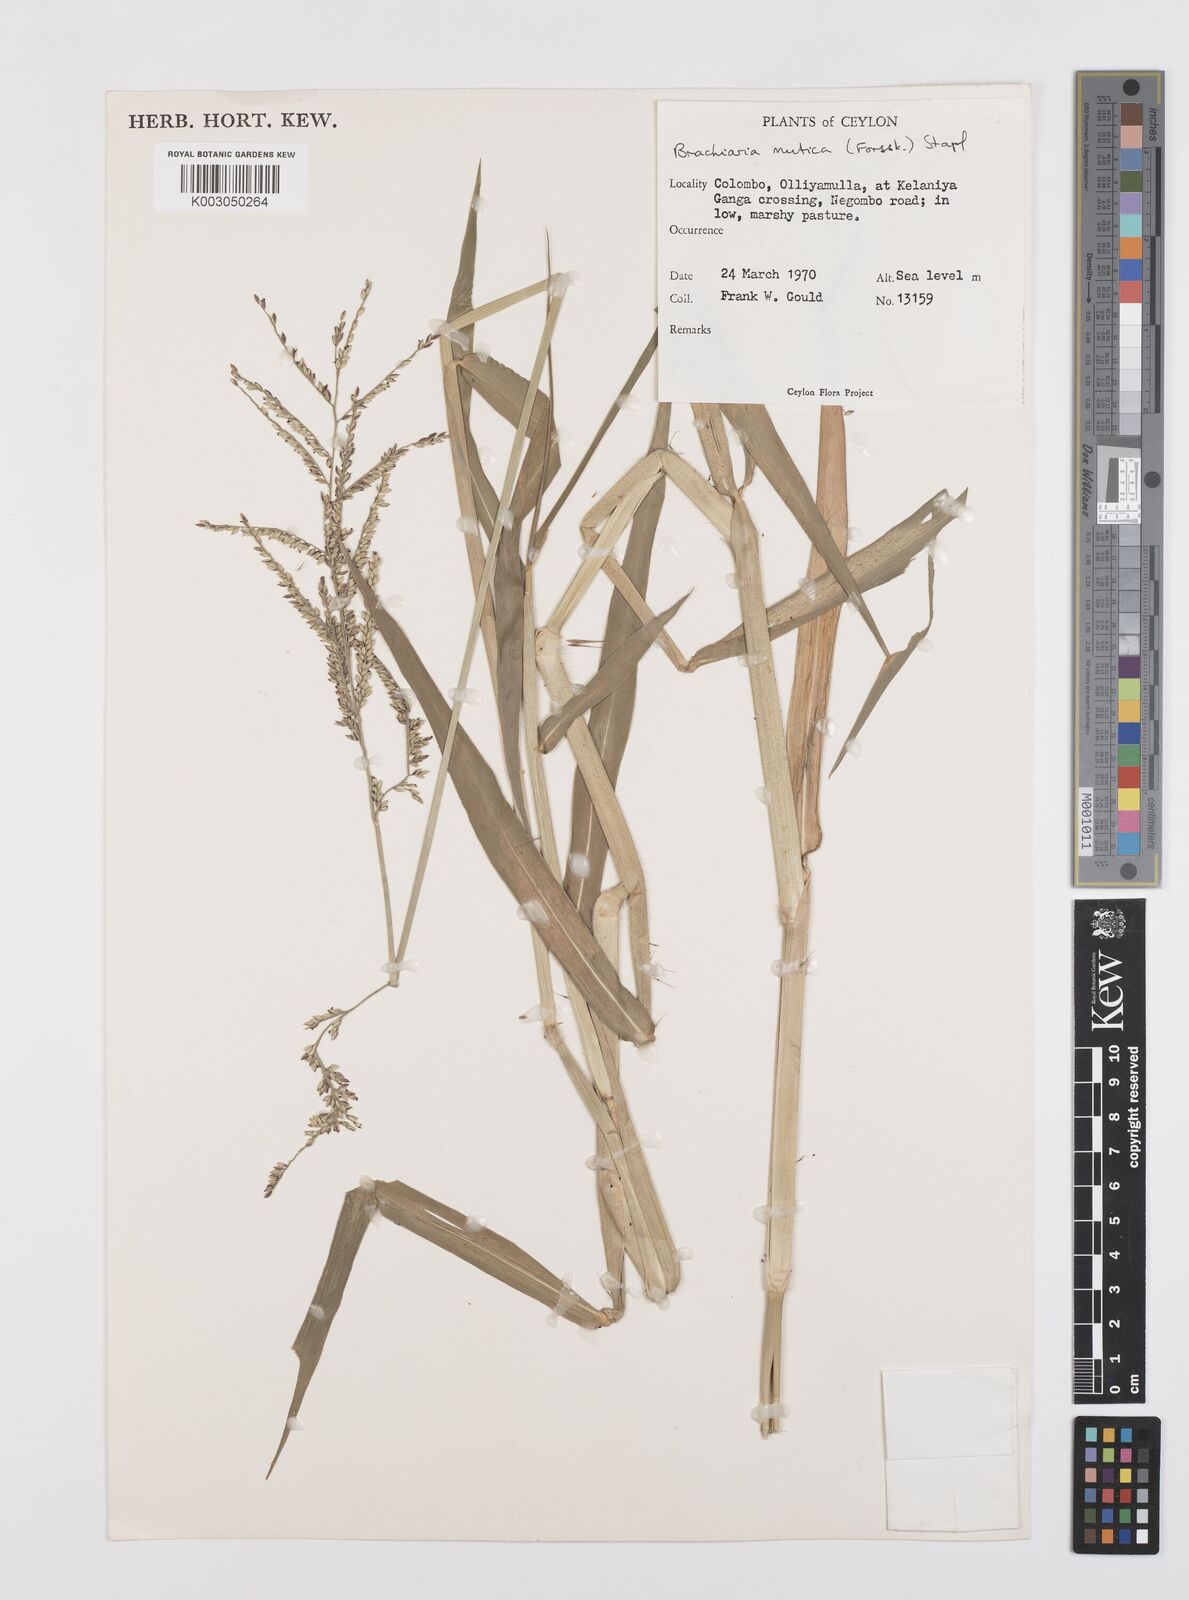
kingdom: Plantae
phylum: Tracheophyta
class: Liliopsida
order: Poales
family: Poaceae
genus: Urochloa
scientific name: Urochloa mutica
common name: Para grass
